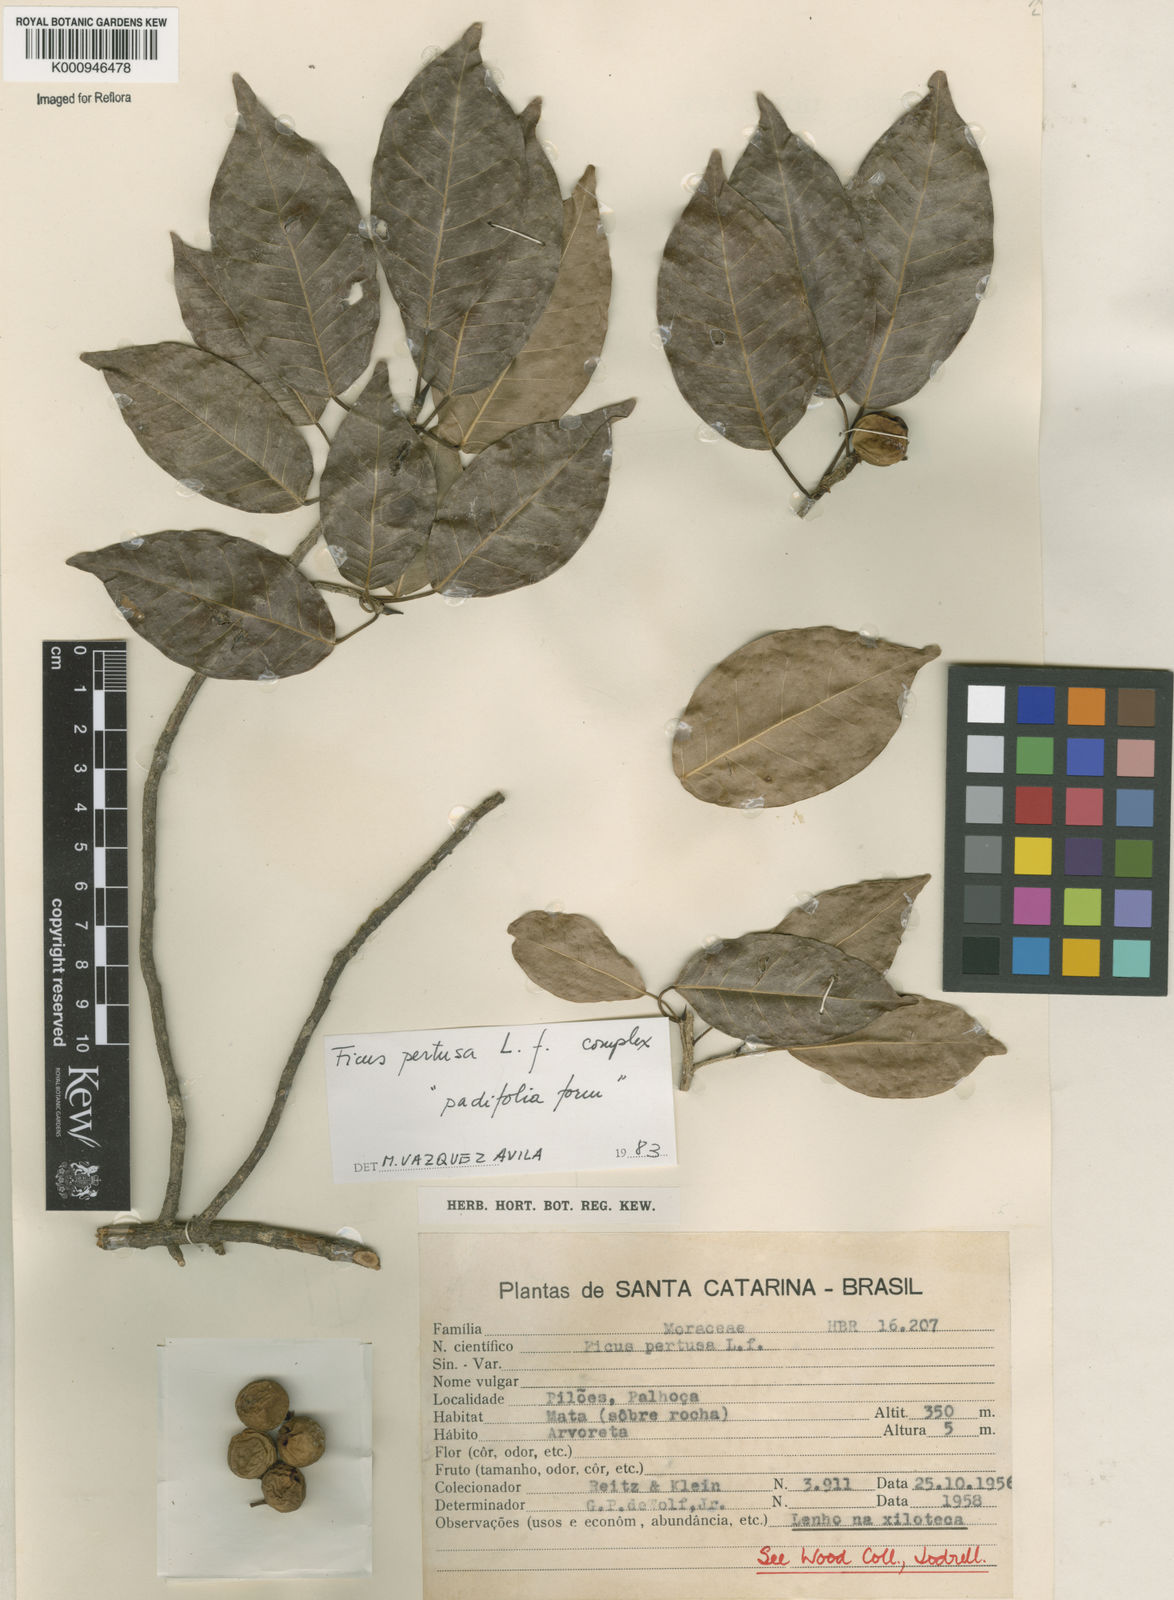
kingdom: Plantae
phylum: Tracheophyta
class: Magnoliopsida
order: Rosales
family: Moraceae
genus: Ficus
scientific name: Ficus pertusa
